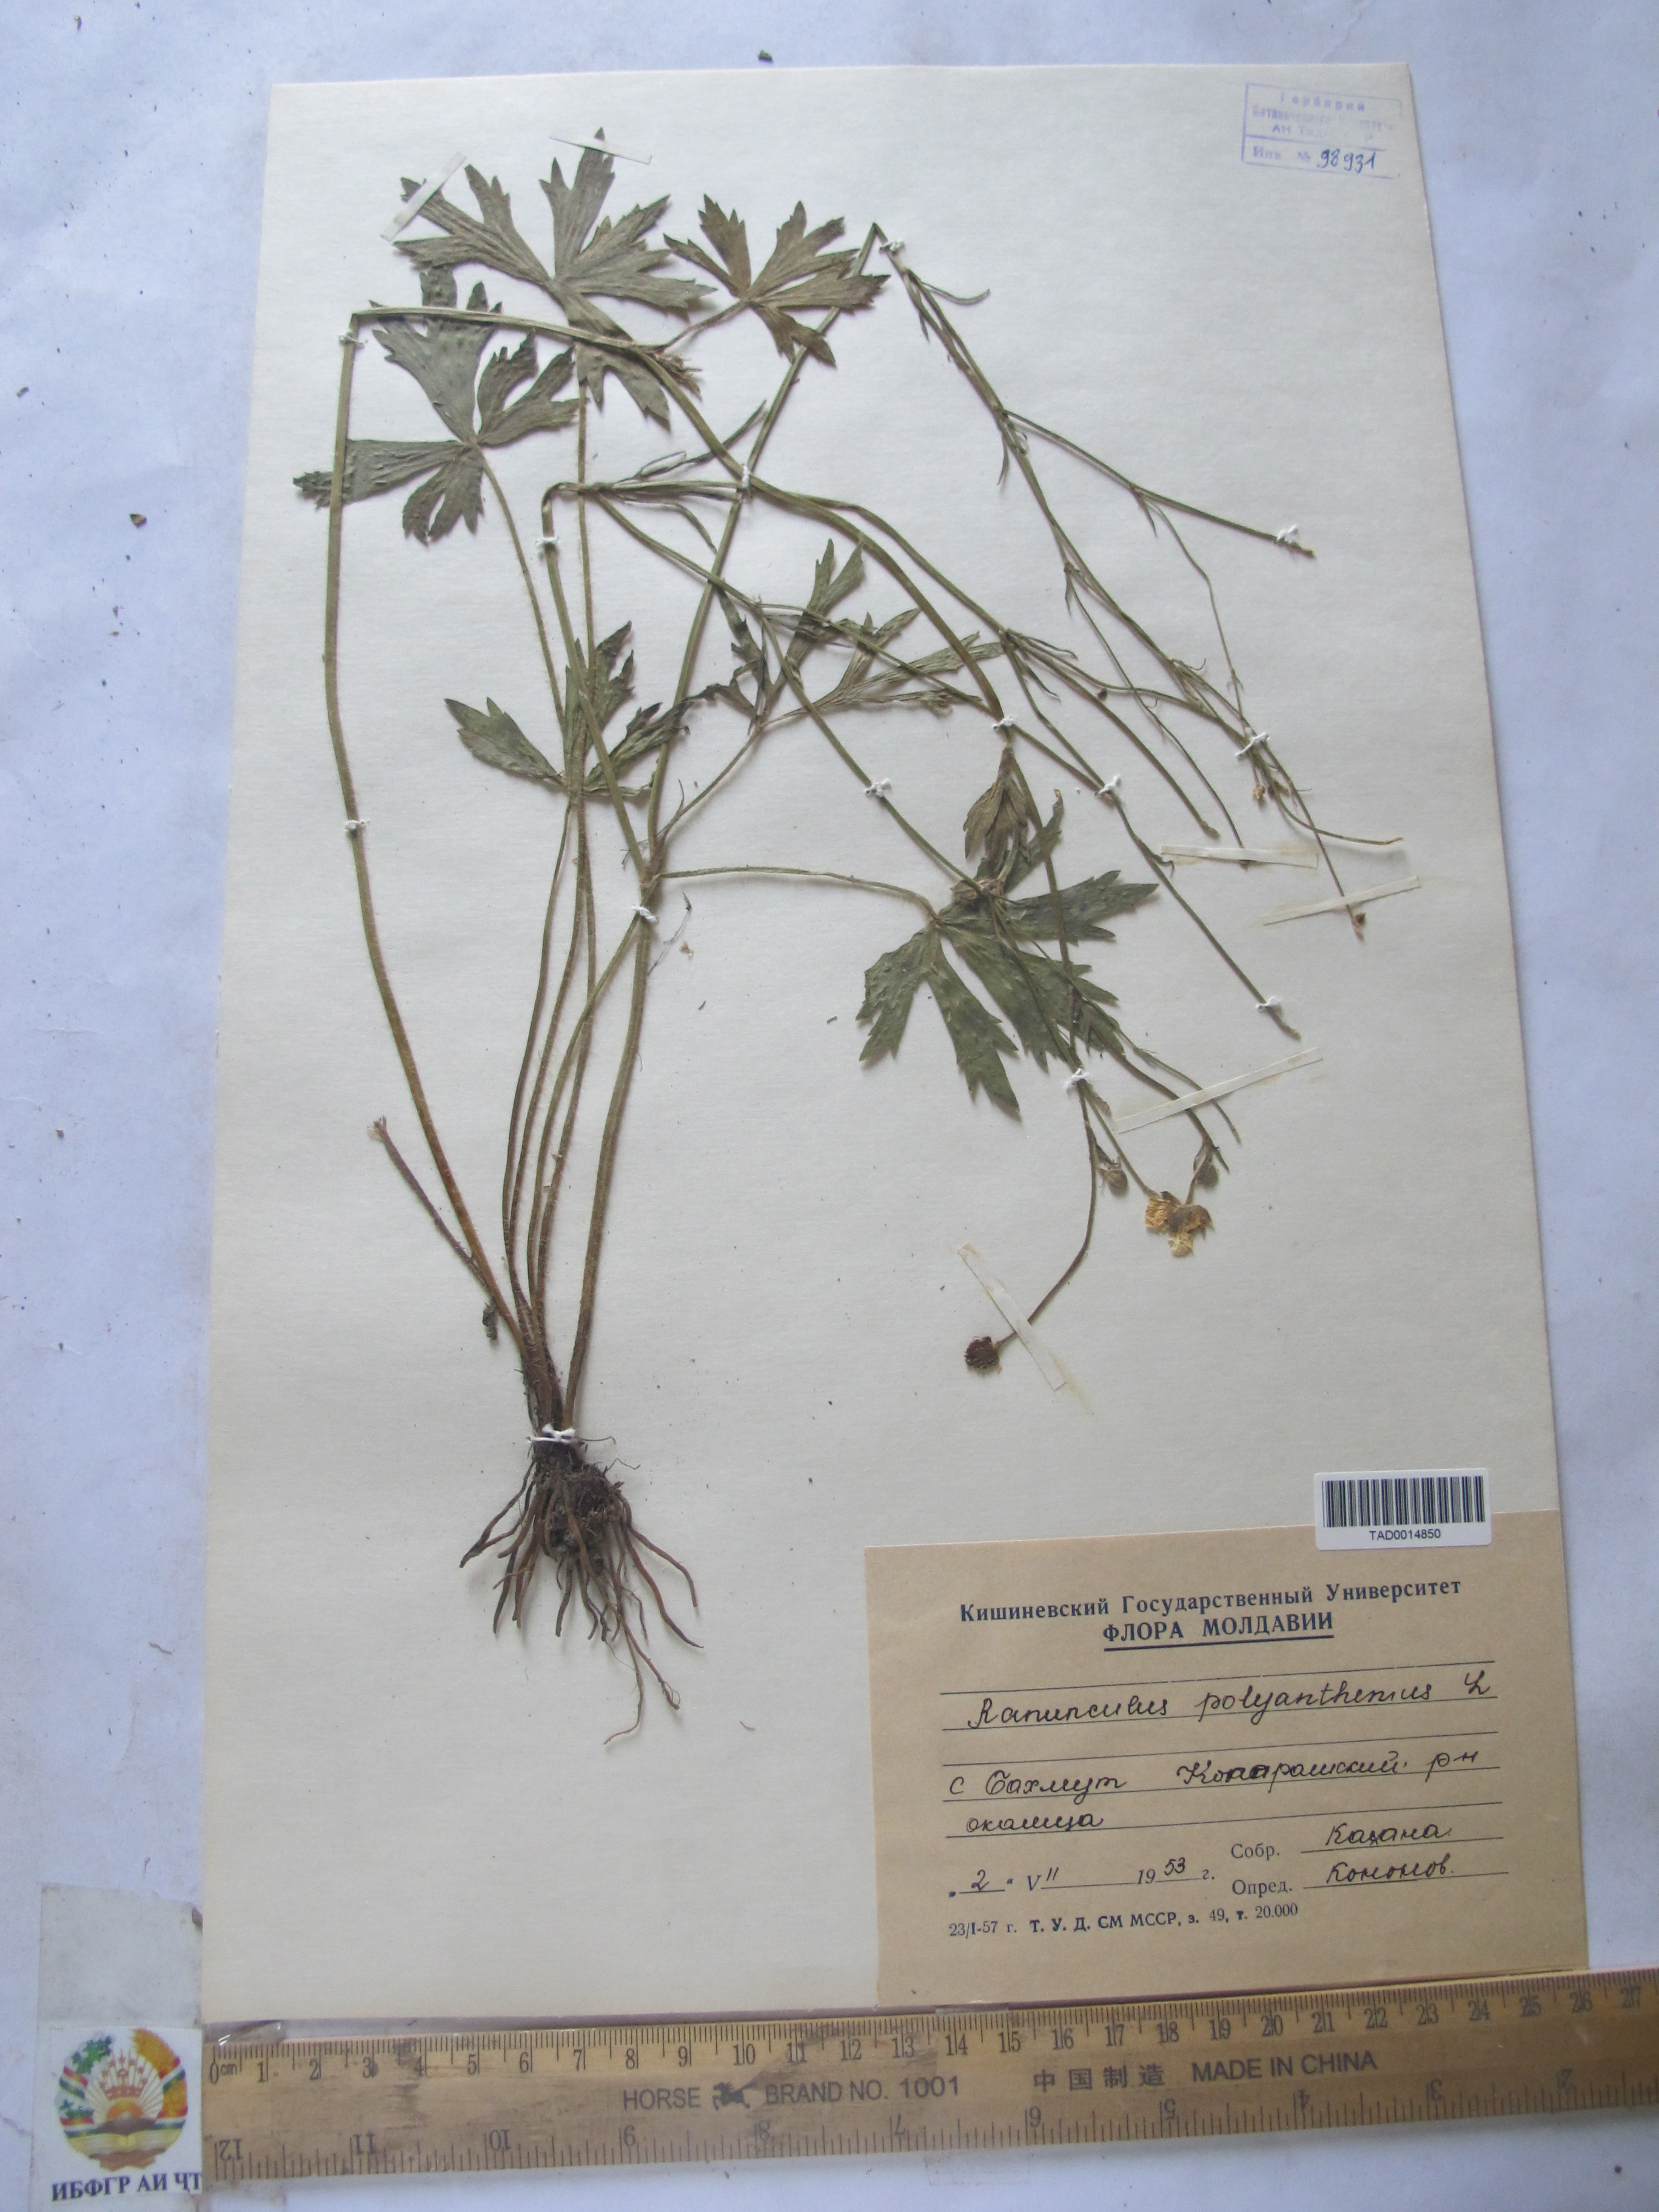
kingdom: Plantae
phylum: Tracheophyta
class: Magnoliopsida
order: Ranunculales
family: Ranunculaceae
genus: Ranunculus
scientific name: Ranunculus polyanthemos
